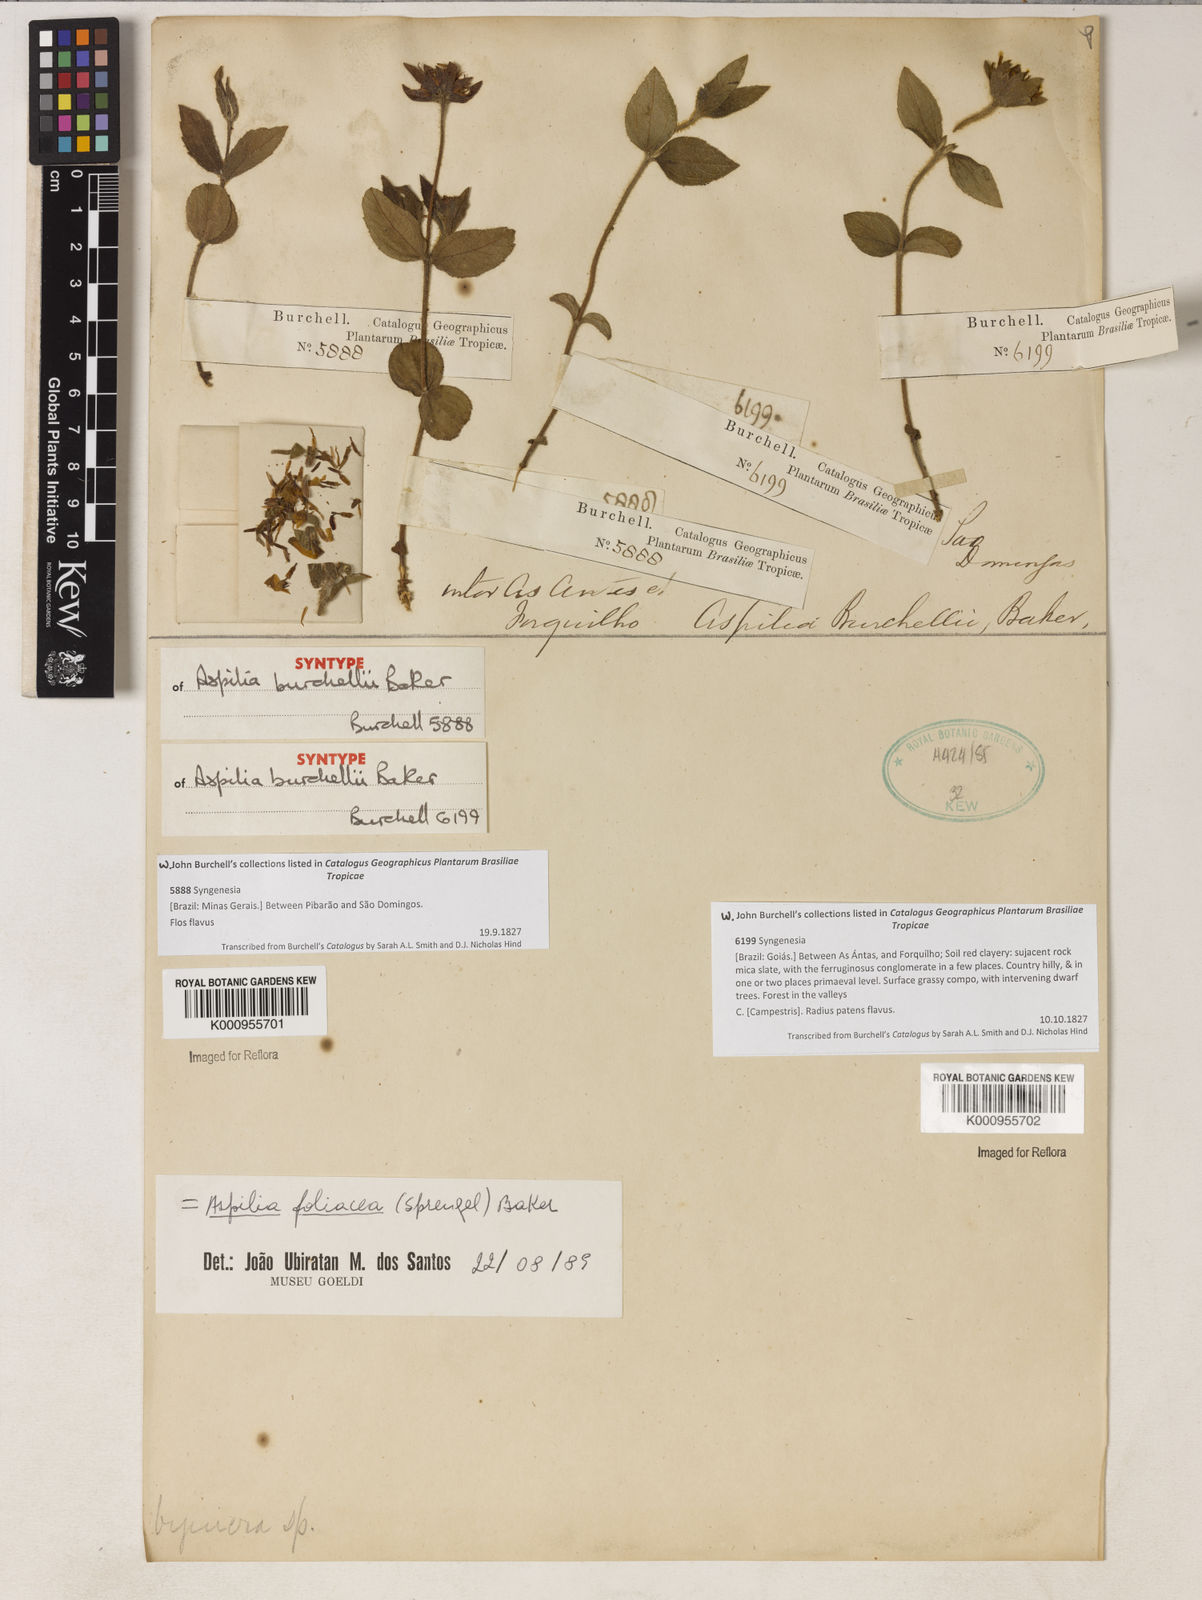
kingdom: Plantae
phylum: Tracheophyta
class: Magnoliopsida
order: Asterales
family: Asteraceae
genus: Wedelia
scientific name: Wedelia foliacea
